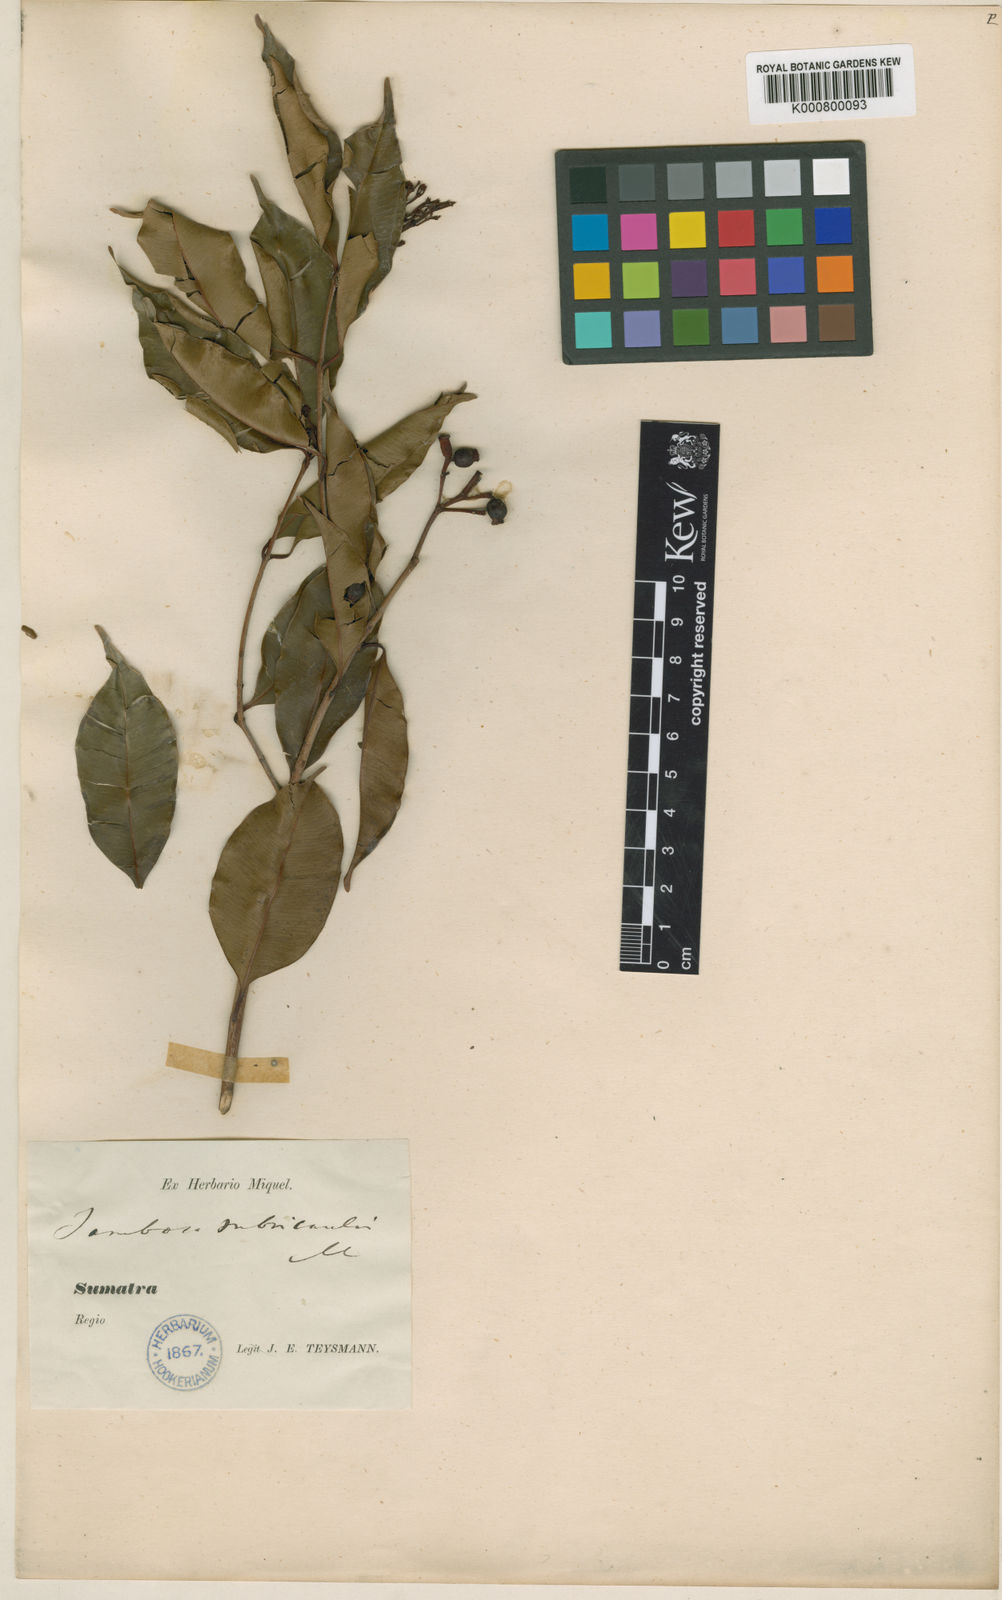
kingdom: Plantae
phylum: Tracheophyta
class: Magnoliopsida
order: Myrtales
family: Myrtaceae
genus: Syzygium
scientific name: Syzygium lineatum
